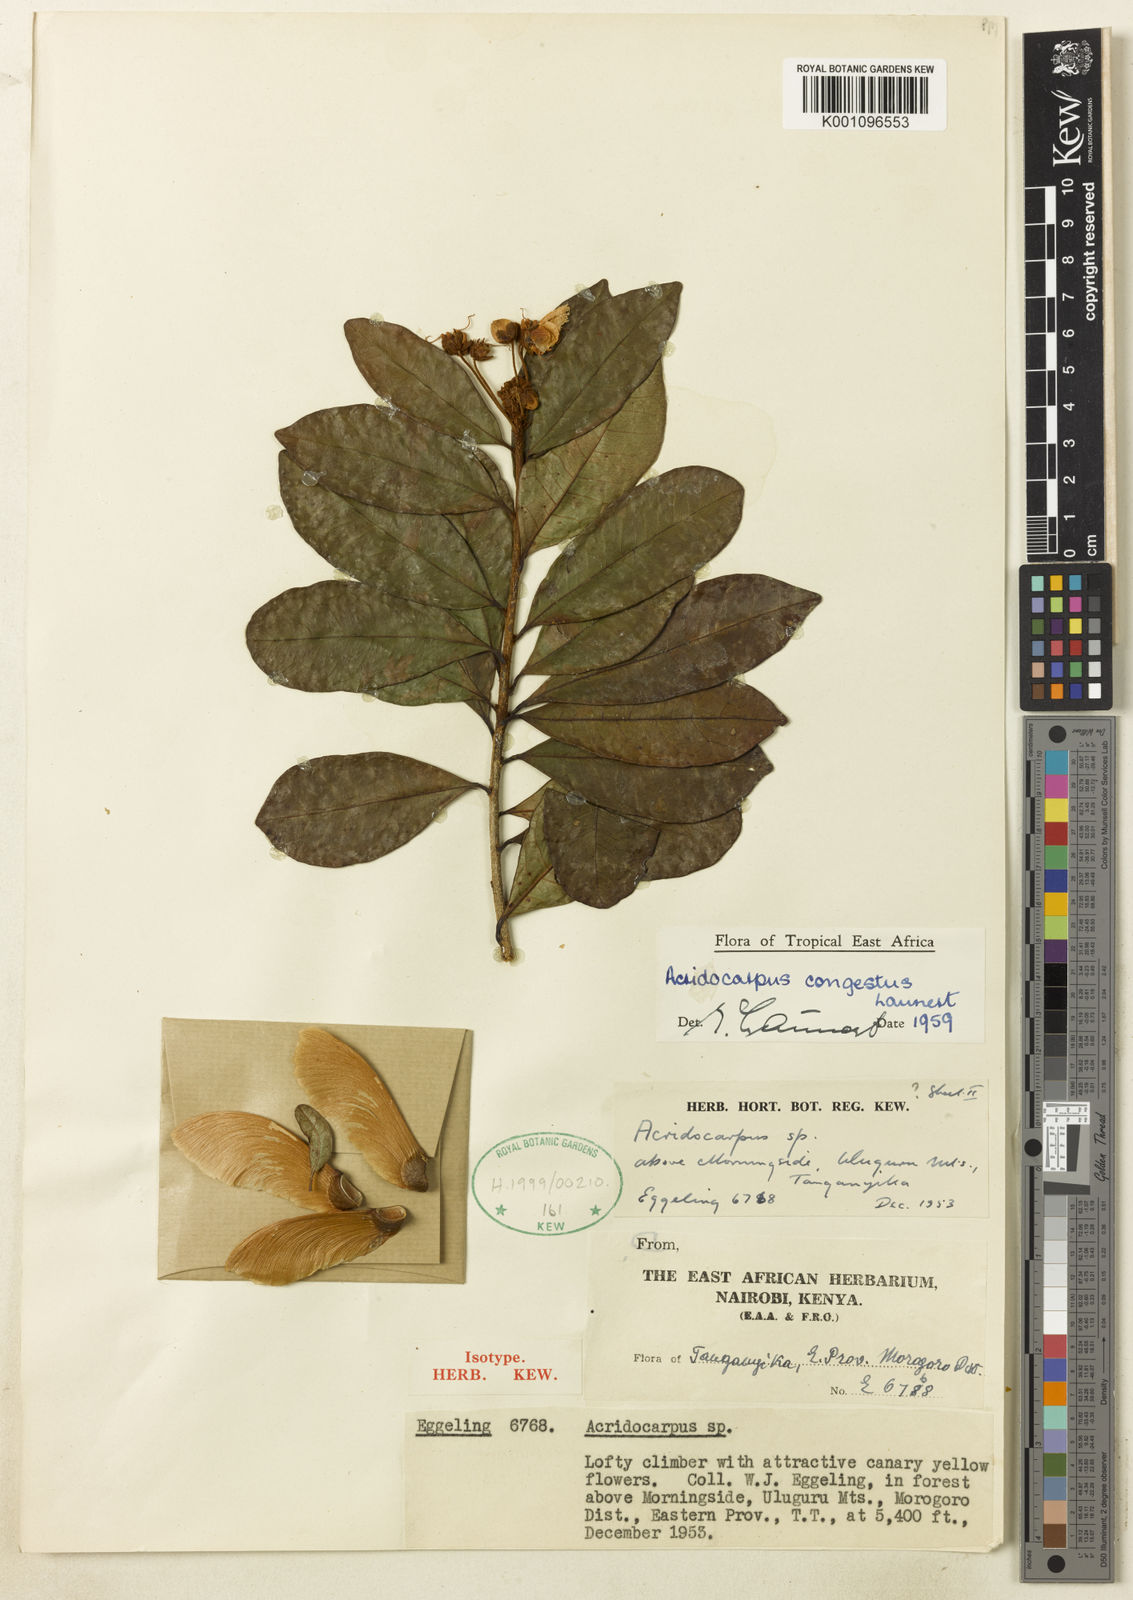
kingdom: Plantae
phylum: Tracheophyta
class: Magnoliopsida
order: Malpighiales
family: Malpighiaceae
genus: Acridocarpus
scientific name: Acridocarpus congestus
